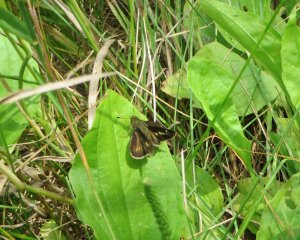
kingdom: Animalia
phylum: Arthropoda
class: Insecta
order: Lepidoptera
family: Hesperiidae
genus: Vernia
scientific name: Vernia verna
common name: Little Glassywing
